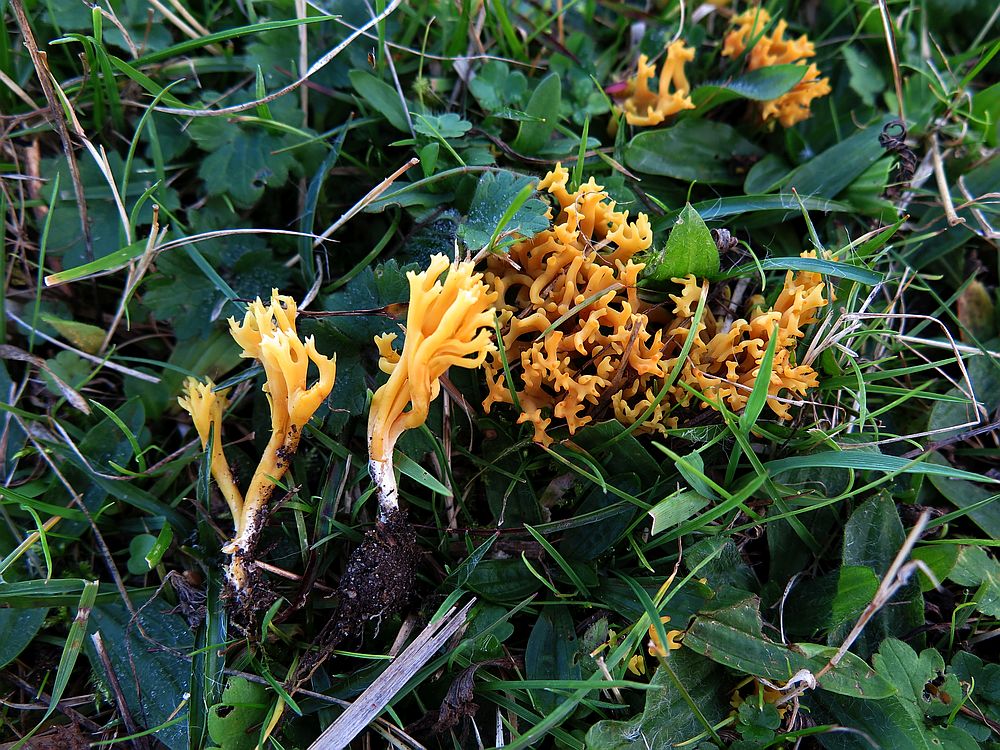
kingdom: Fungi
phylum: Basidiomycota
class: Agaricomycetes
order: Agaricales
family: Clavariaceae
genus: Clavulinopsis
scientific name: Clavulinopsis corniculata
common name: eng-køllesvamp
